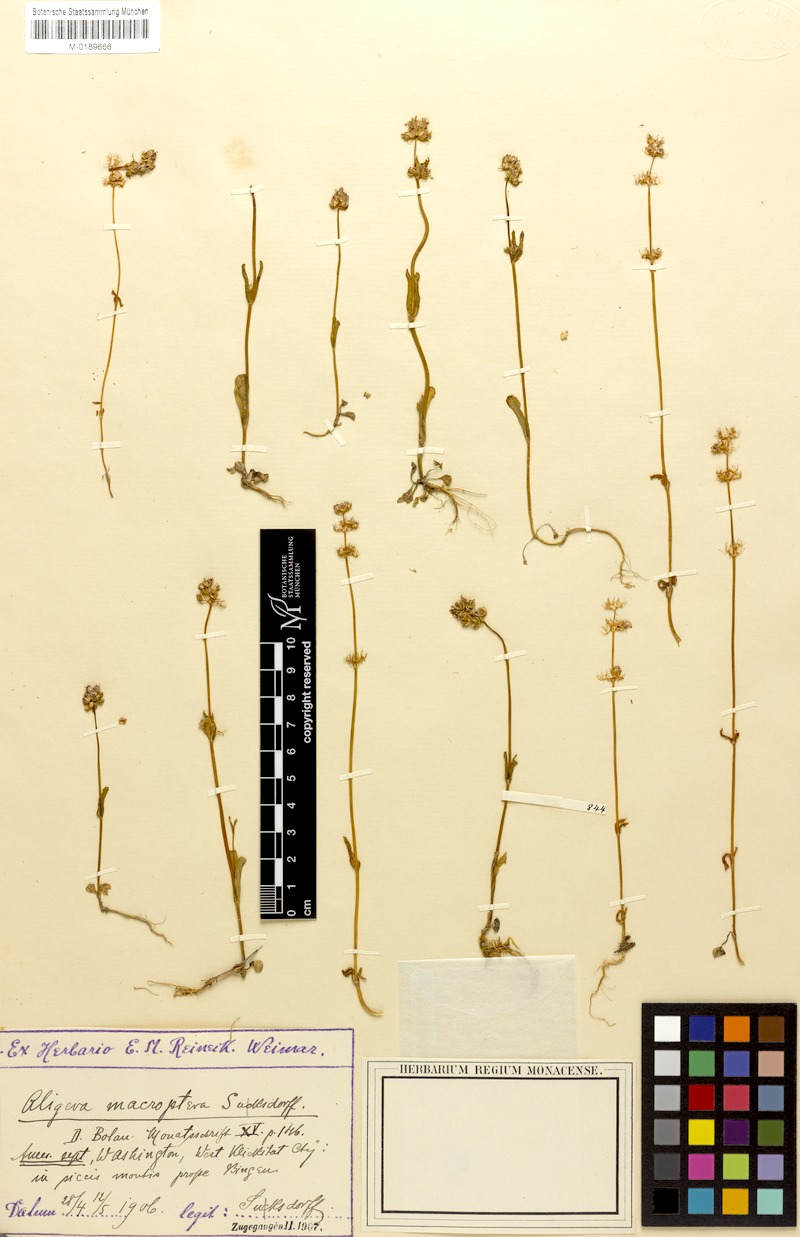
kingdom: Plantae
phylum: Tracheophyta
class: Magnoliopsida
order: Dipsacales
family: Caprifoliaceae
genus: Plectritis
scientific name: Plectritis macroptera
